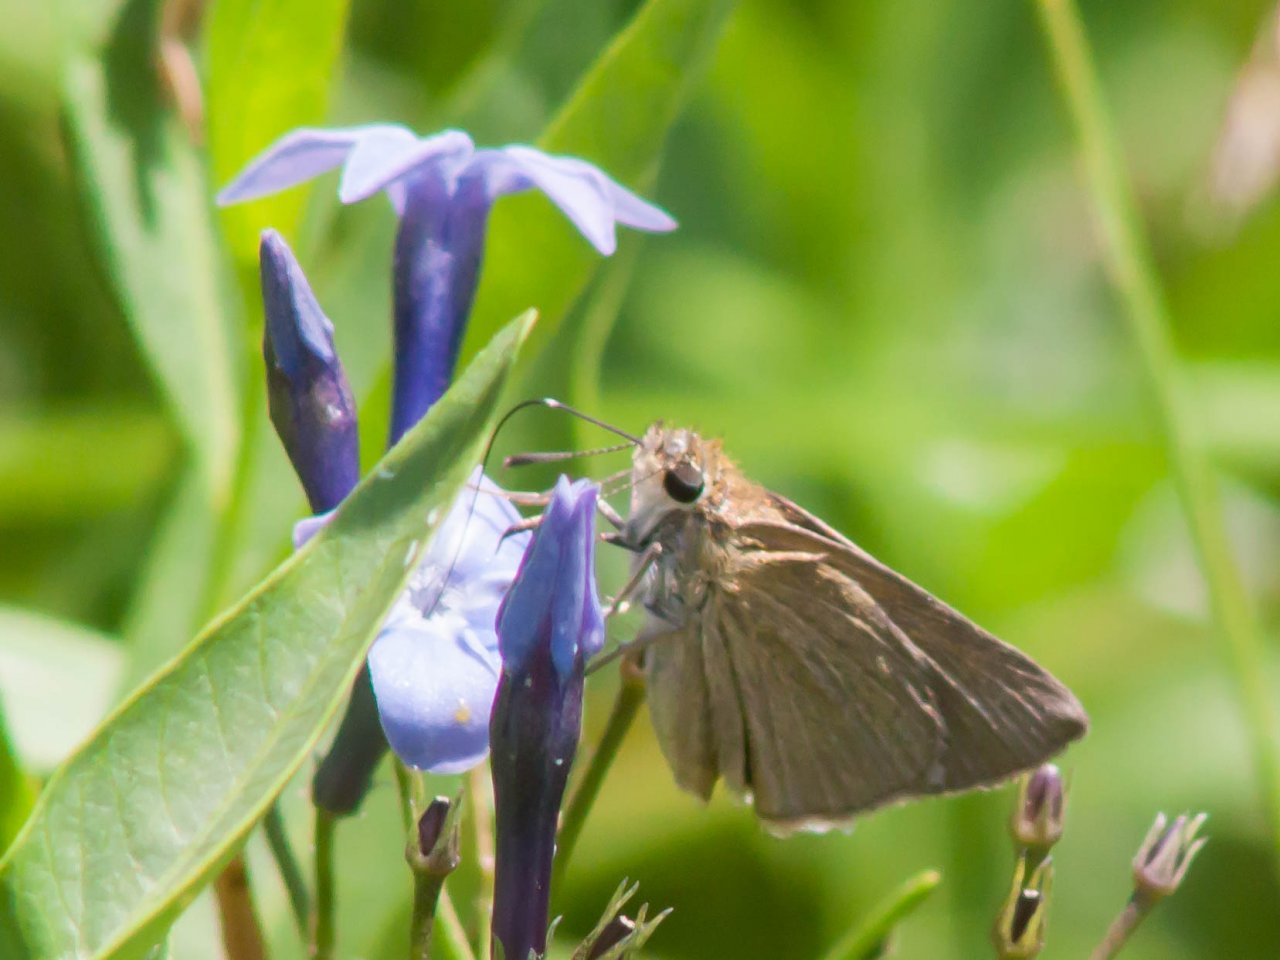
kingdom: Animalia
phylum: Arthropoda
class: Insecta
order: Lepidoptera
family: Hesperiidae
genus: Nastra
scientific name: Nastra lherminier
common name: Swarthy Skipper
